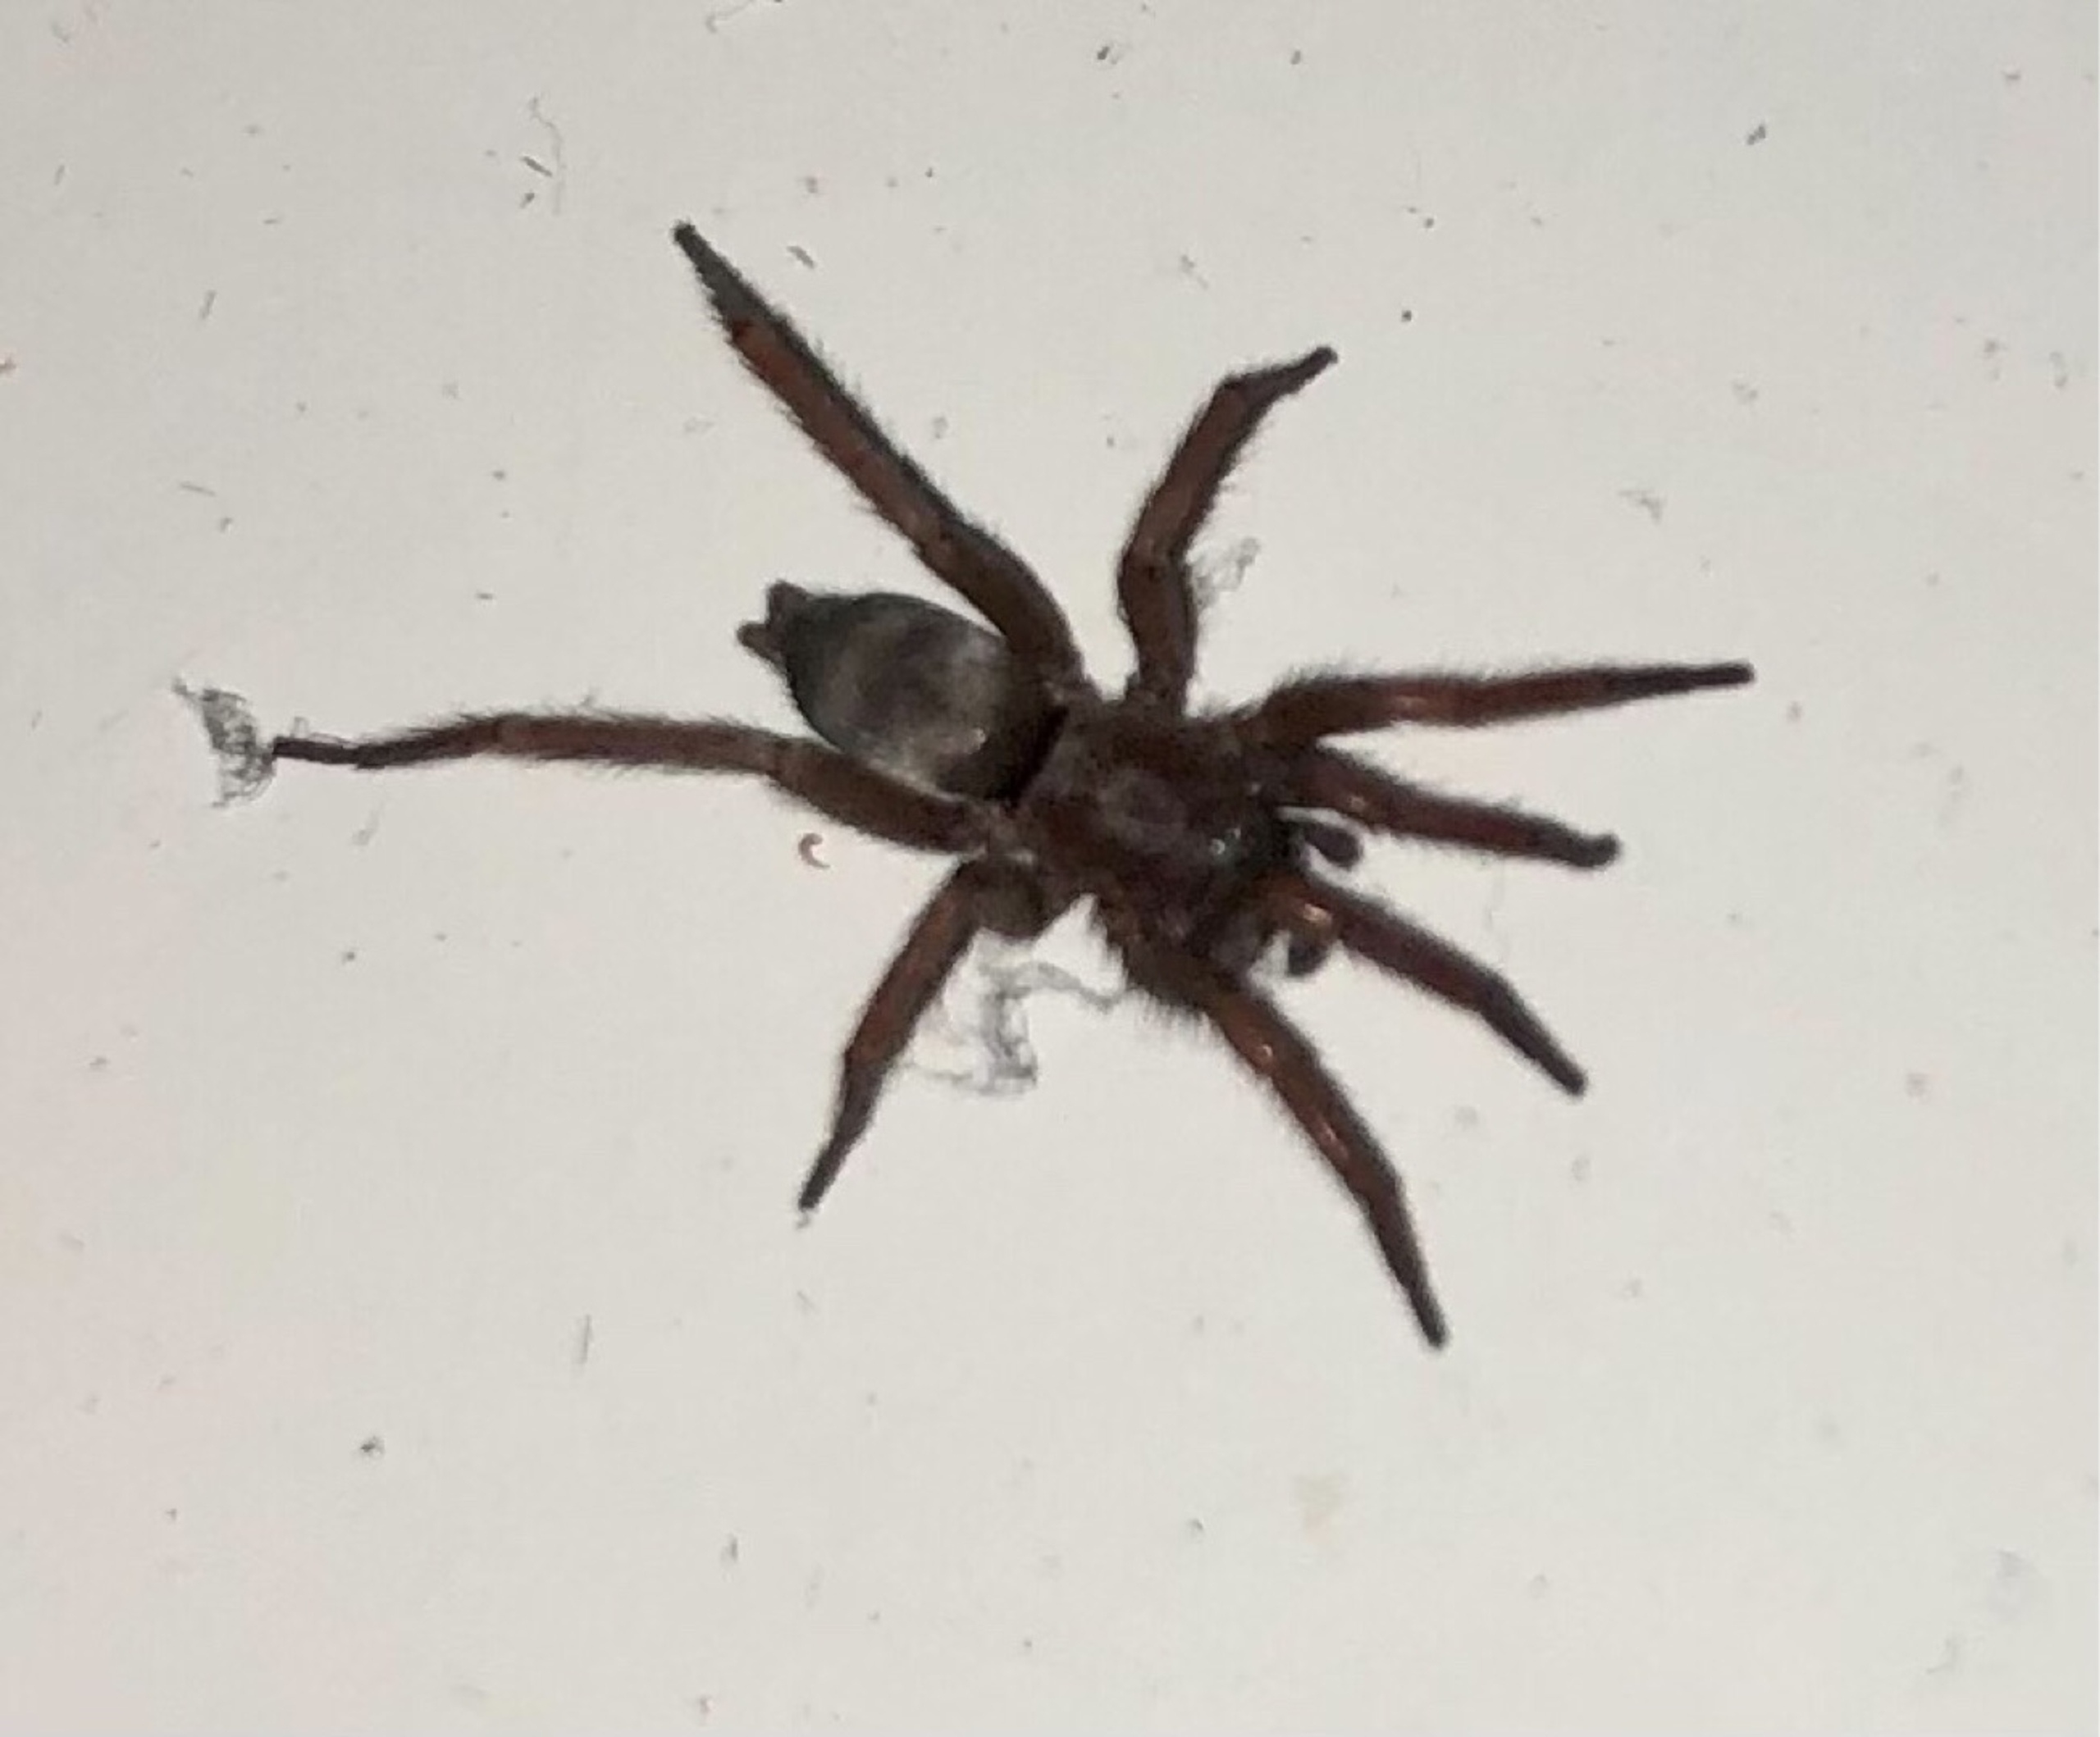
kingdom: Animalia
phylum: Arthropoda
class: Arachnida
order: Araneae
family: Gnaphosidae
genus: Scotophaeus
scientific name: Scotophaeus
